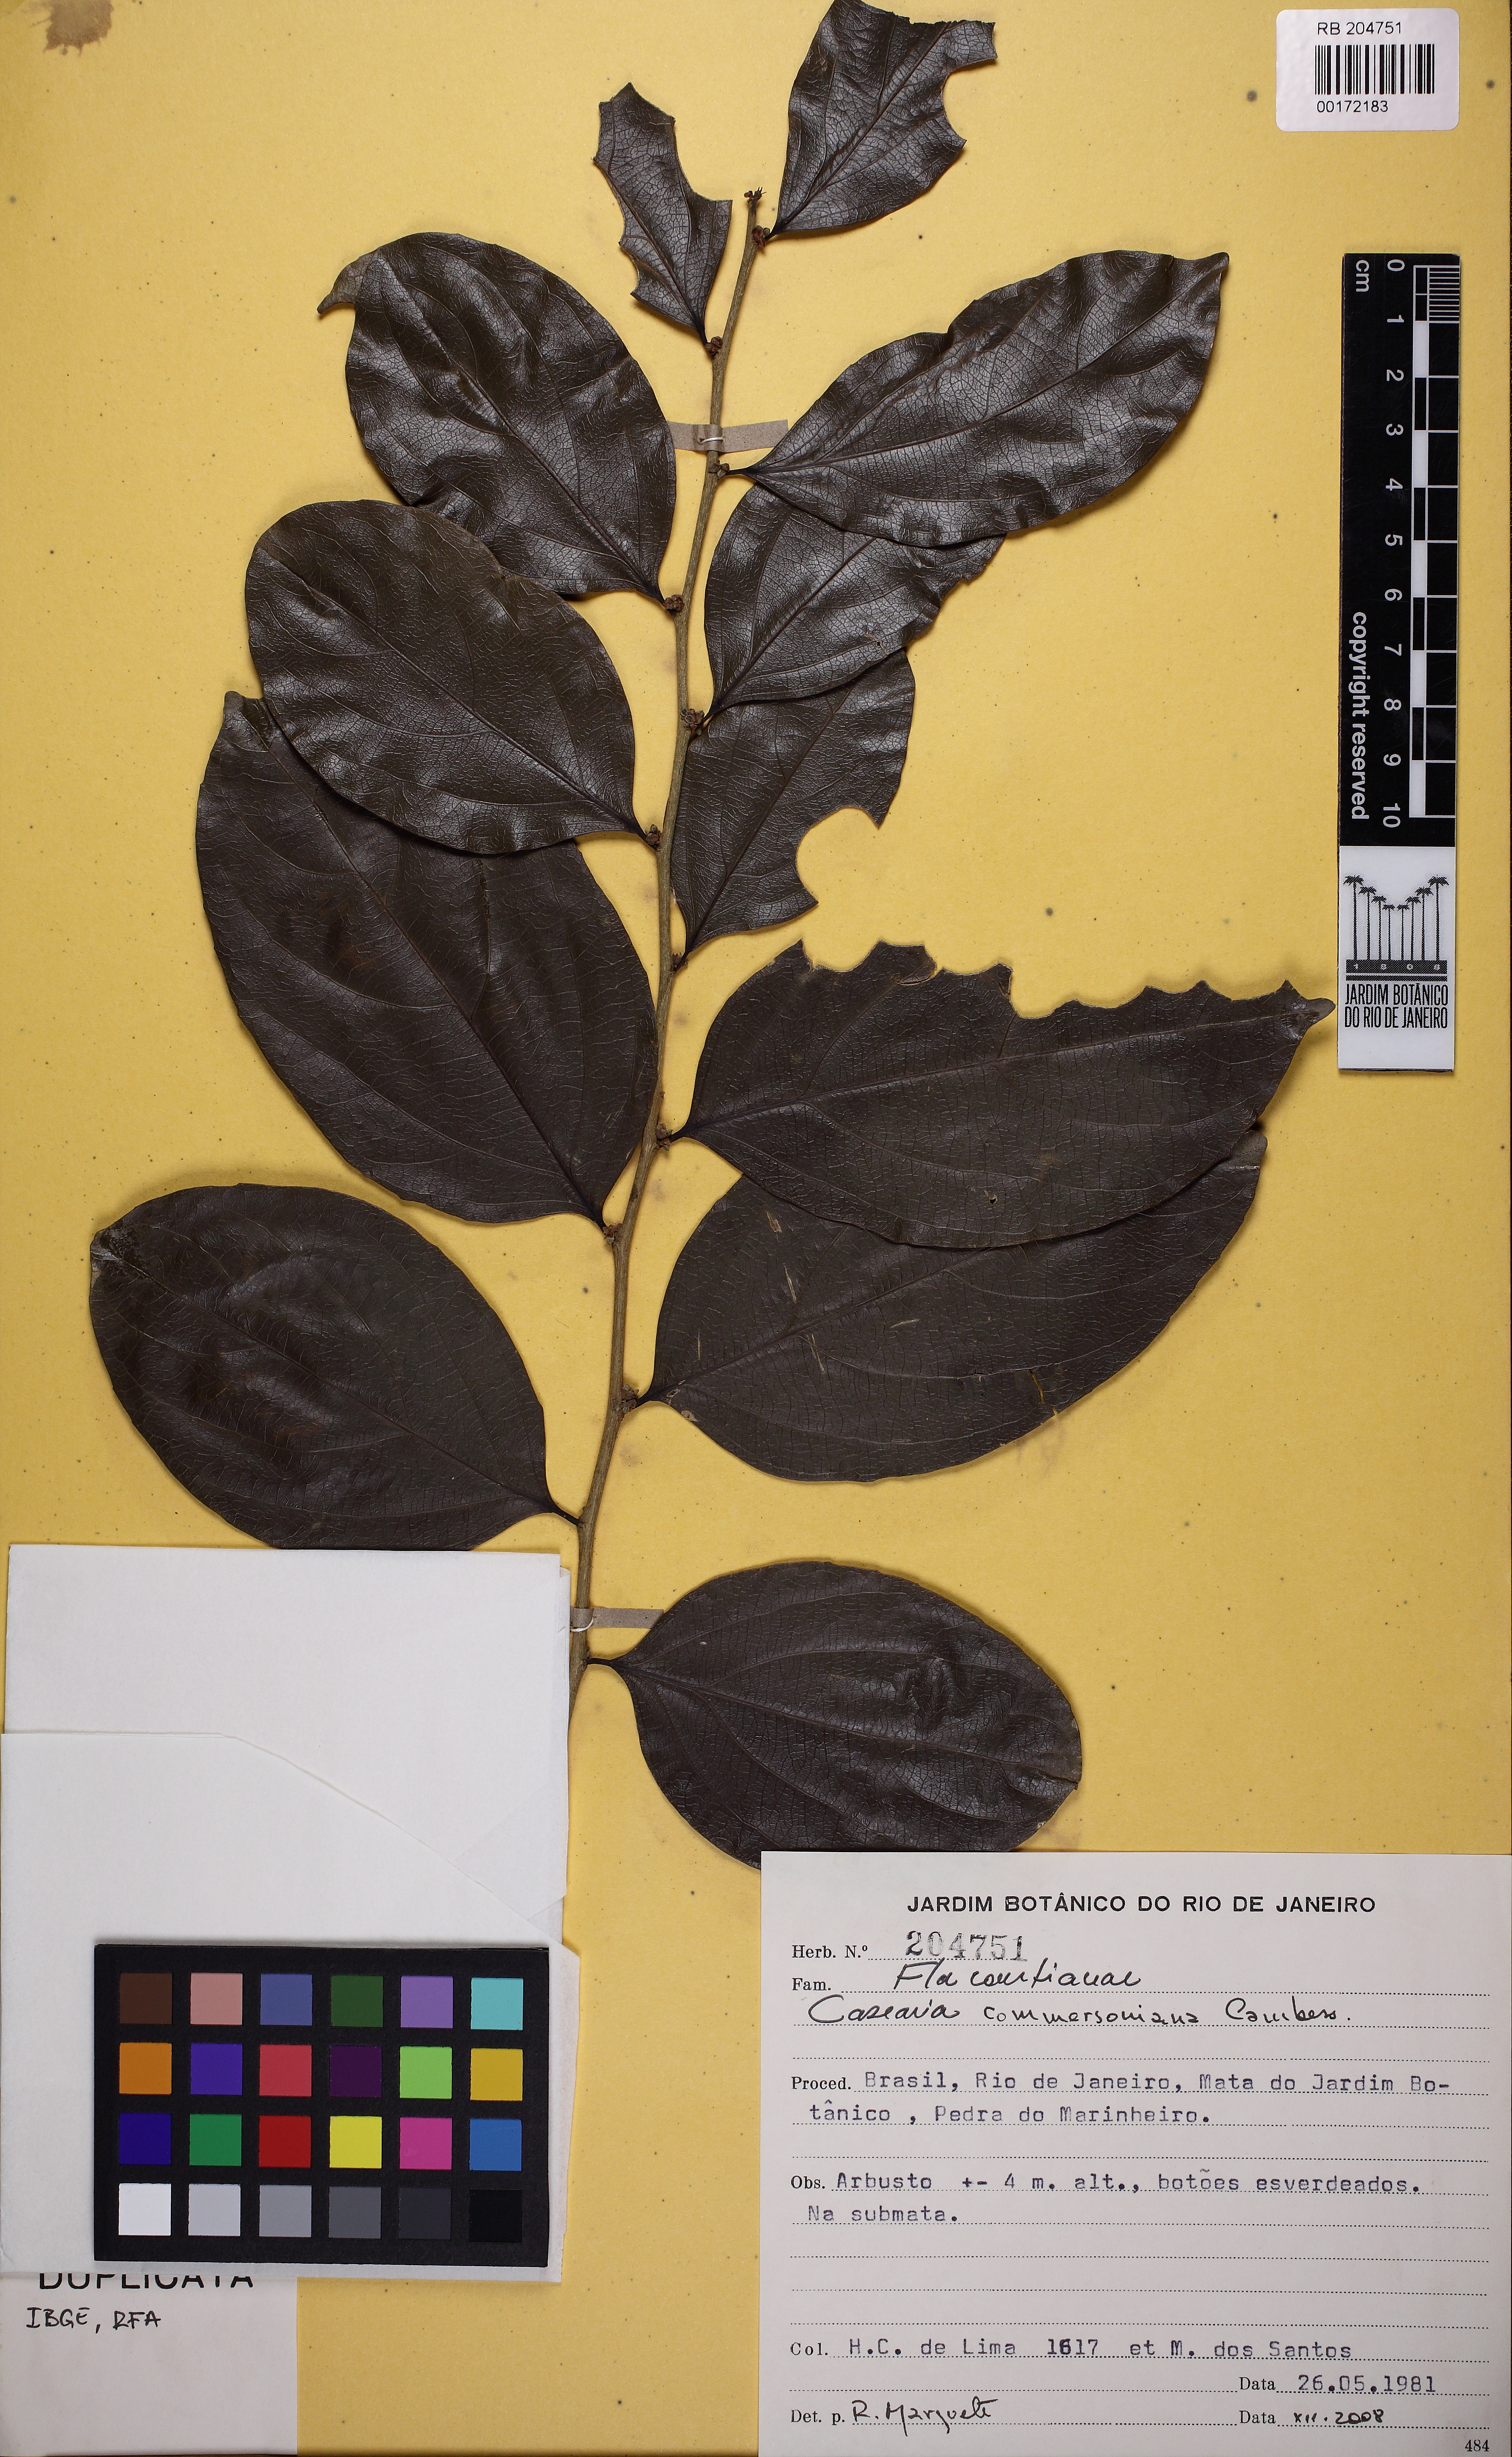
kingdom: Plantae
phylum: Tracheophyta
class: Magnoliopsida
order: Malpighiales
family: Salicaceae
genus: Piparea
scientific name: Piparea dentata
